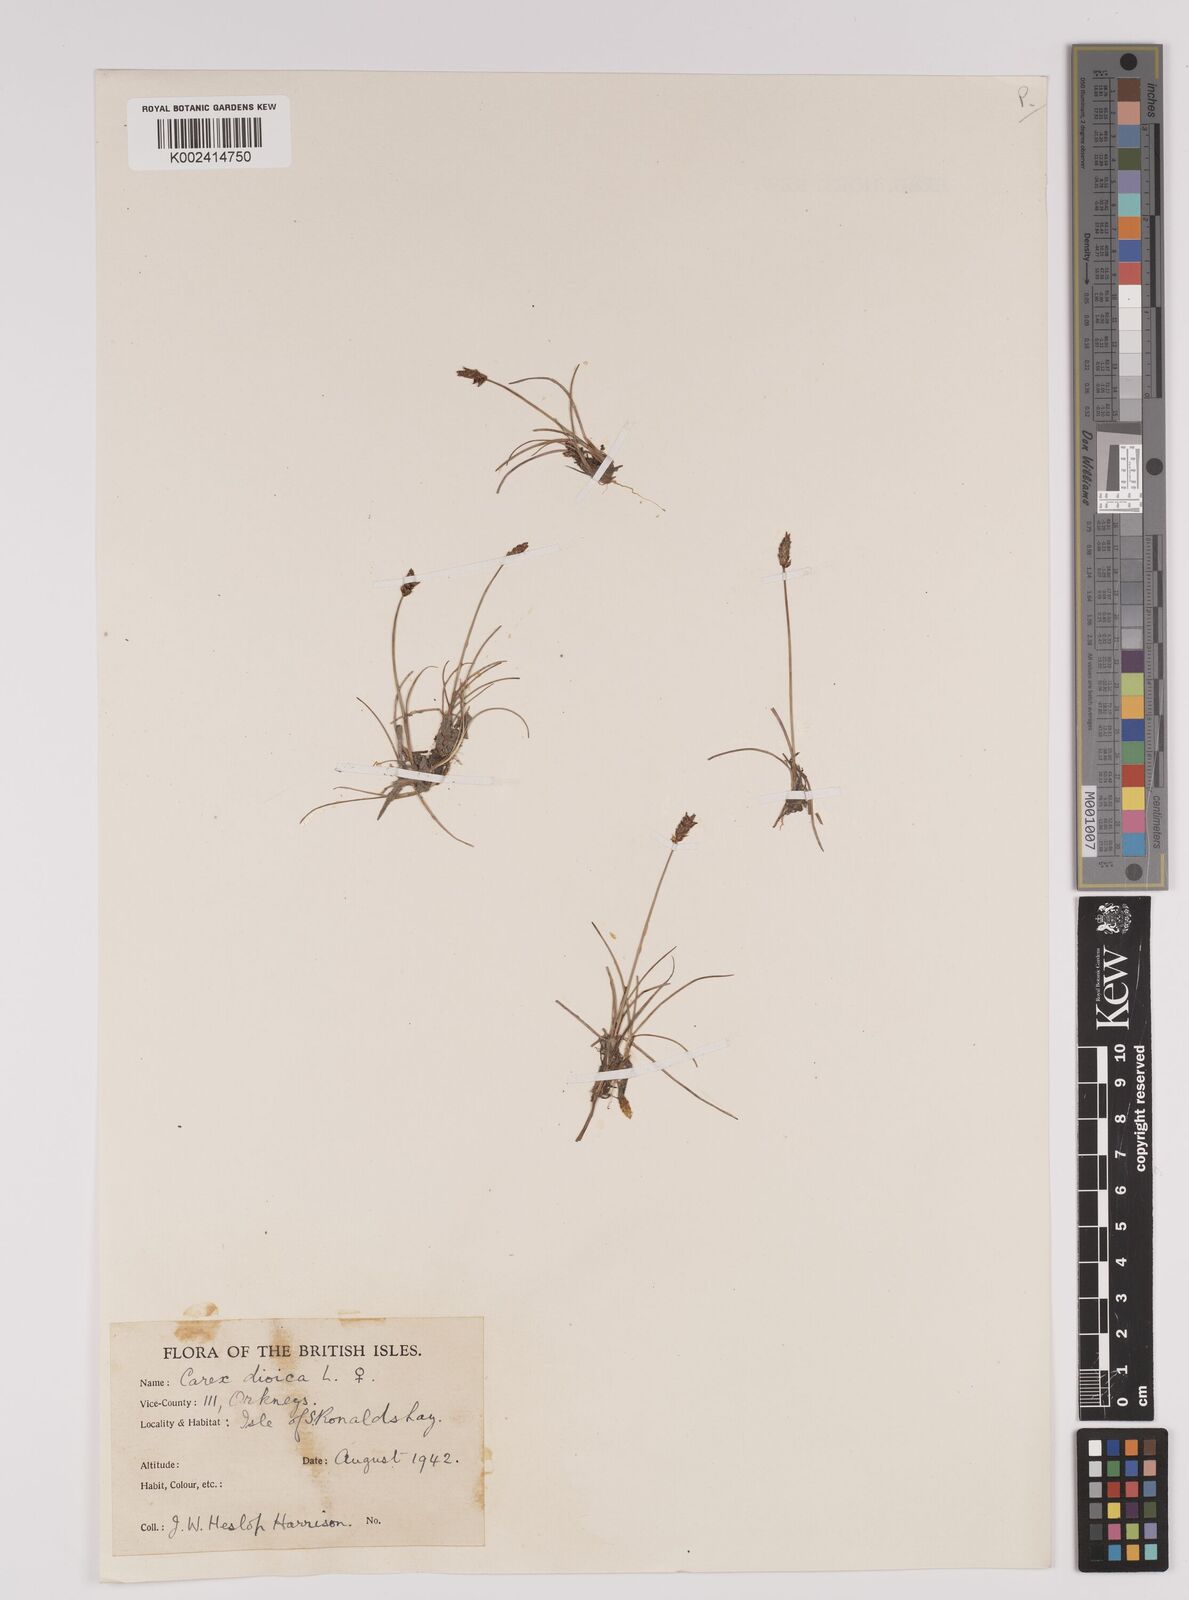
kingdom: Plantae
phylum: Tracheophyta
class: Liliopsida
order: Poales
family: Cyperaceae
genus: Carex
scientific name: Carex dioica
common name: Dioecious sedge
